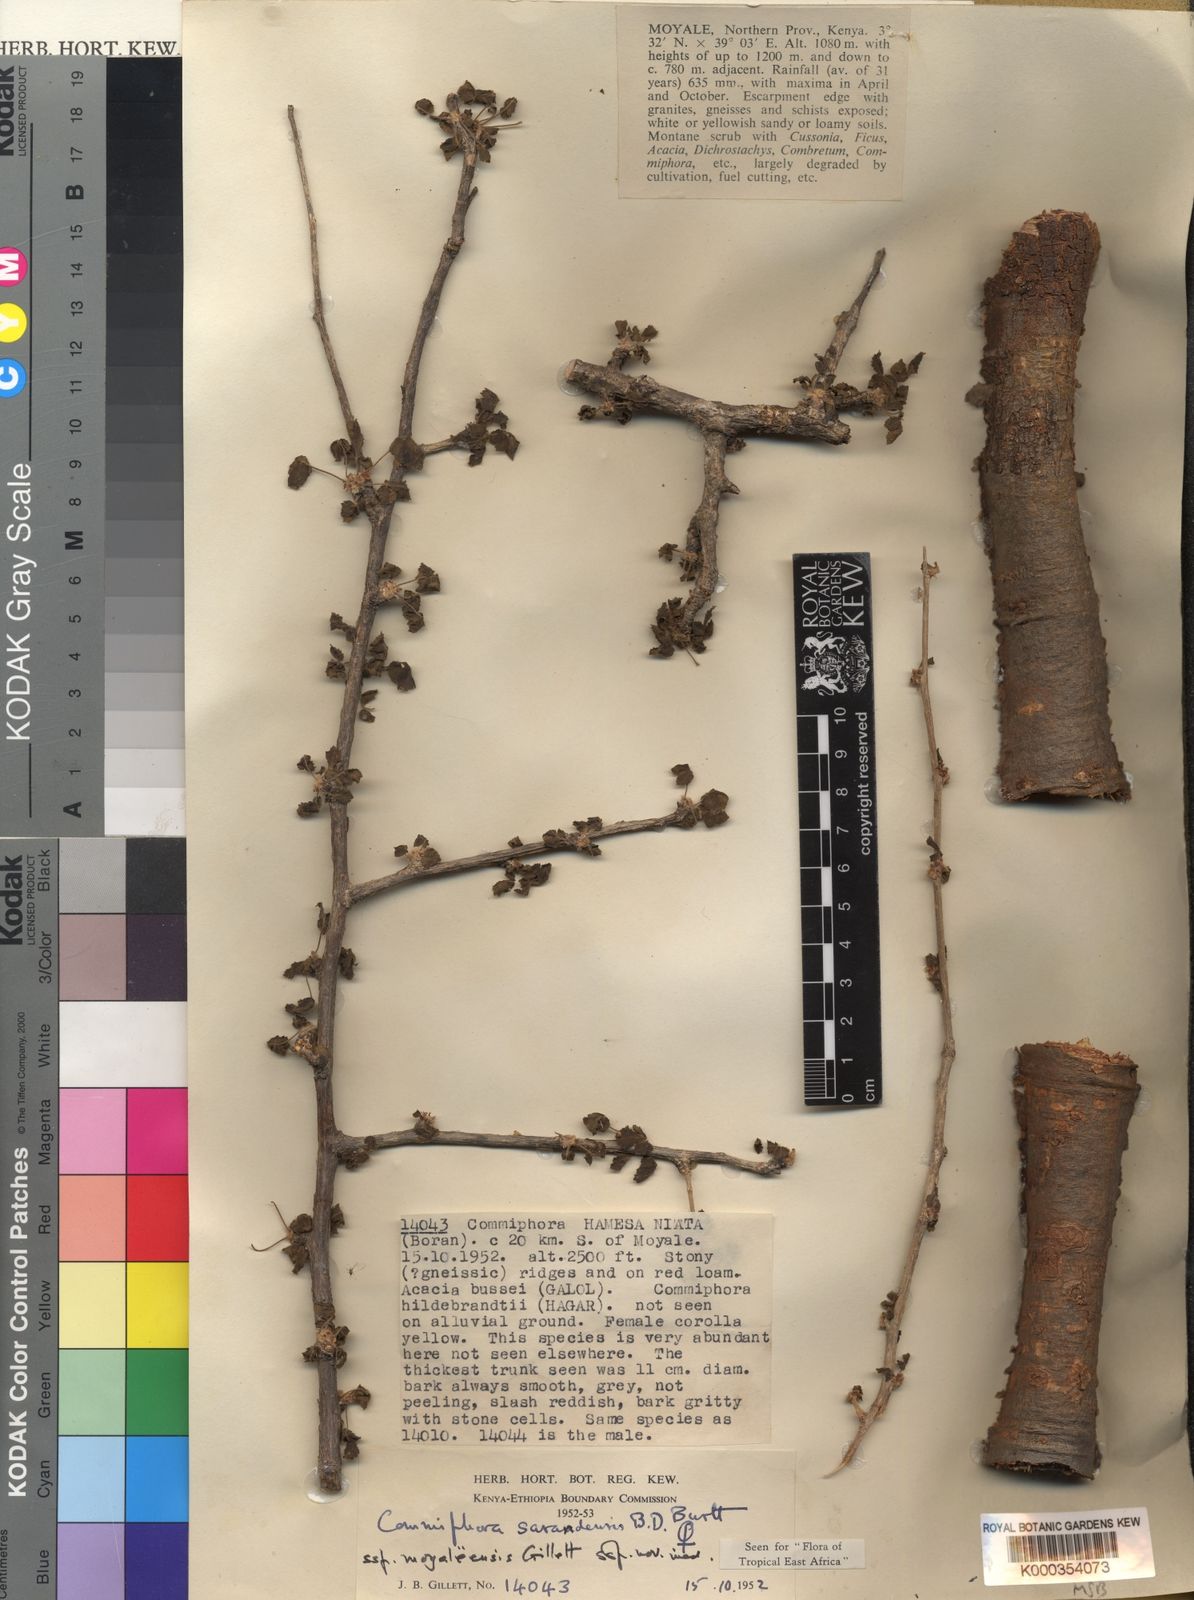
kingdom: Plantae
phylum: Tracheophyta
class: Magnoliopsida
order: Sapindales
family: Burseraceae
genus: Commiphora
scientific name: Commiphora sarandensis
